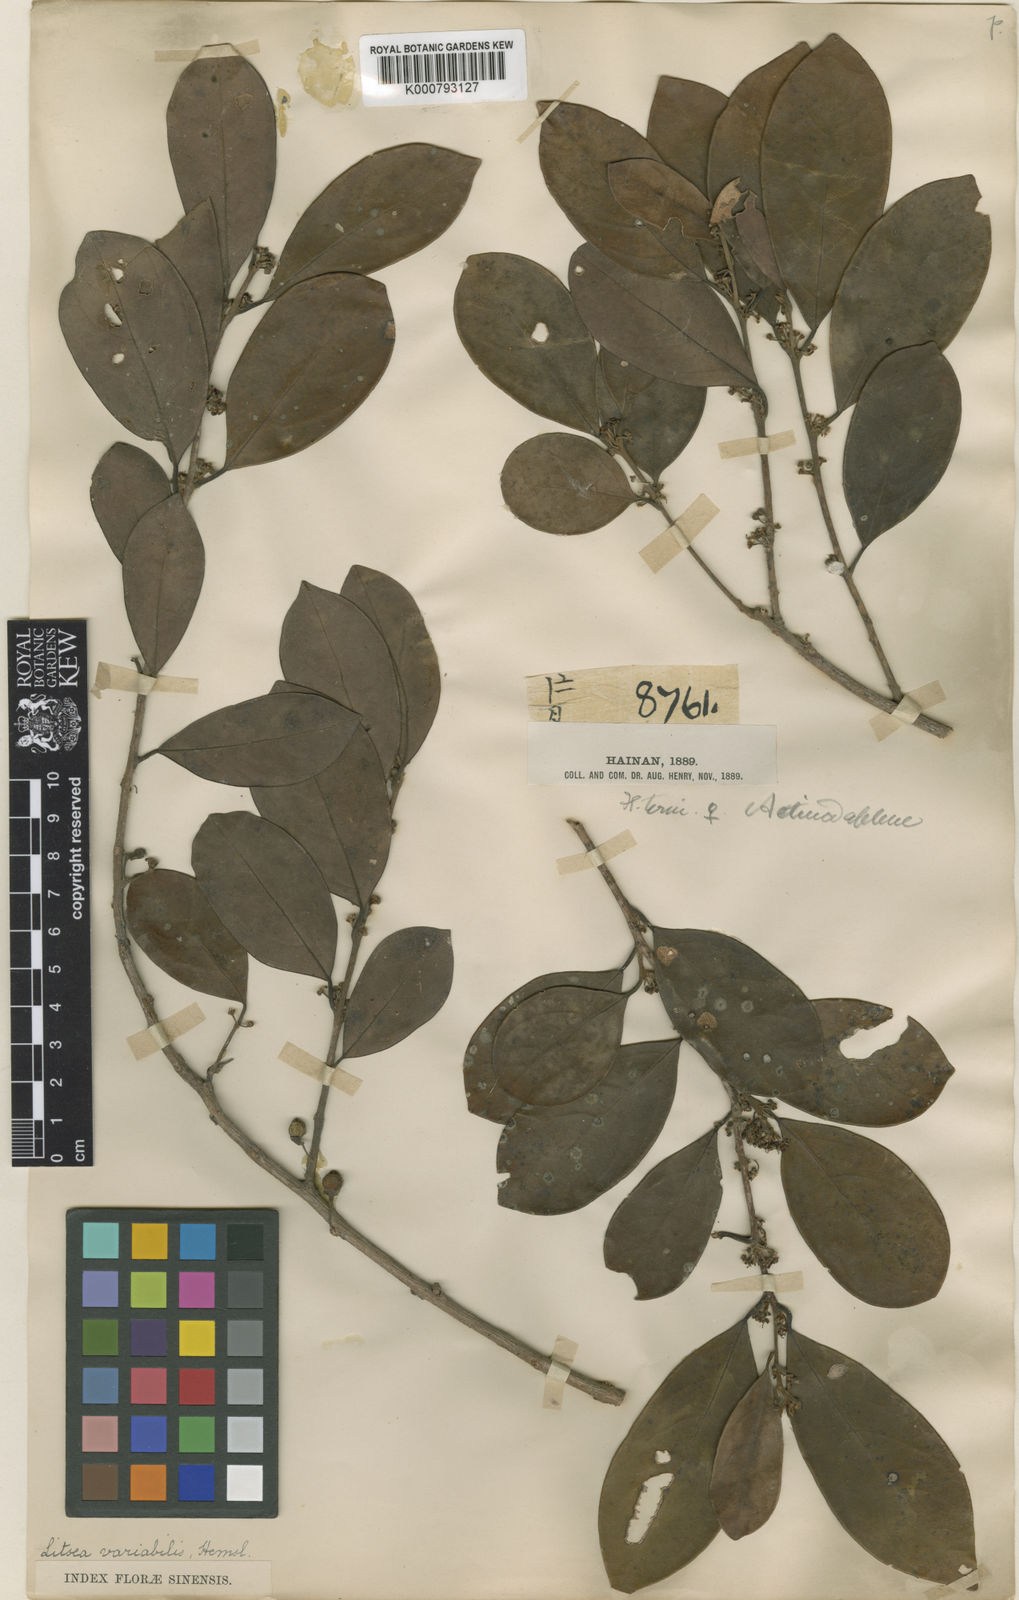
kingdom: Plantae
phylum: Tracheophyta
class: Magnoliopsida
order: Laurales
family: Lauraceae
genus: Litsea
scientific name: Litsea variabilis
